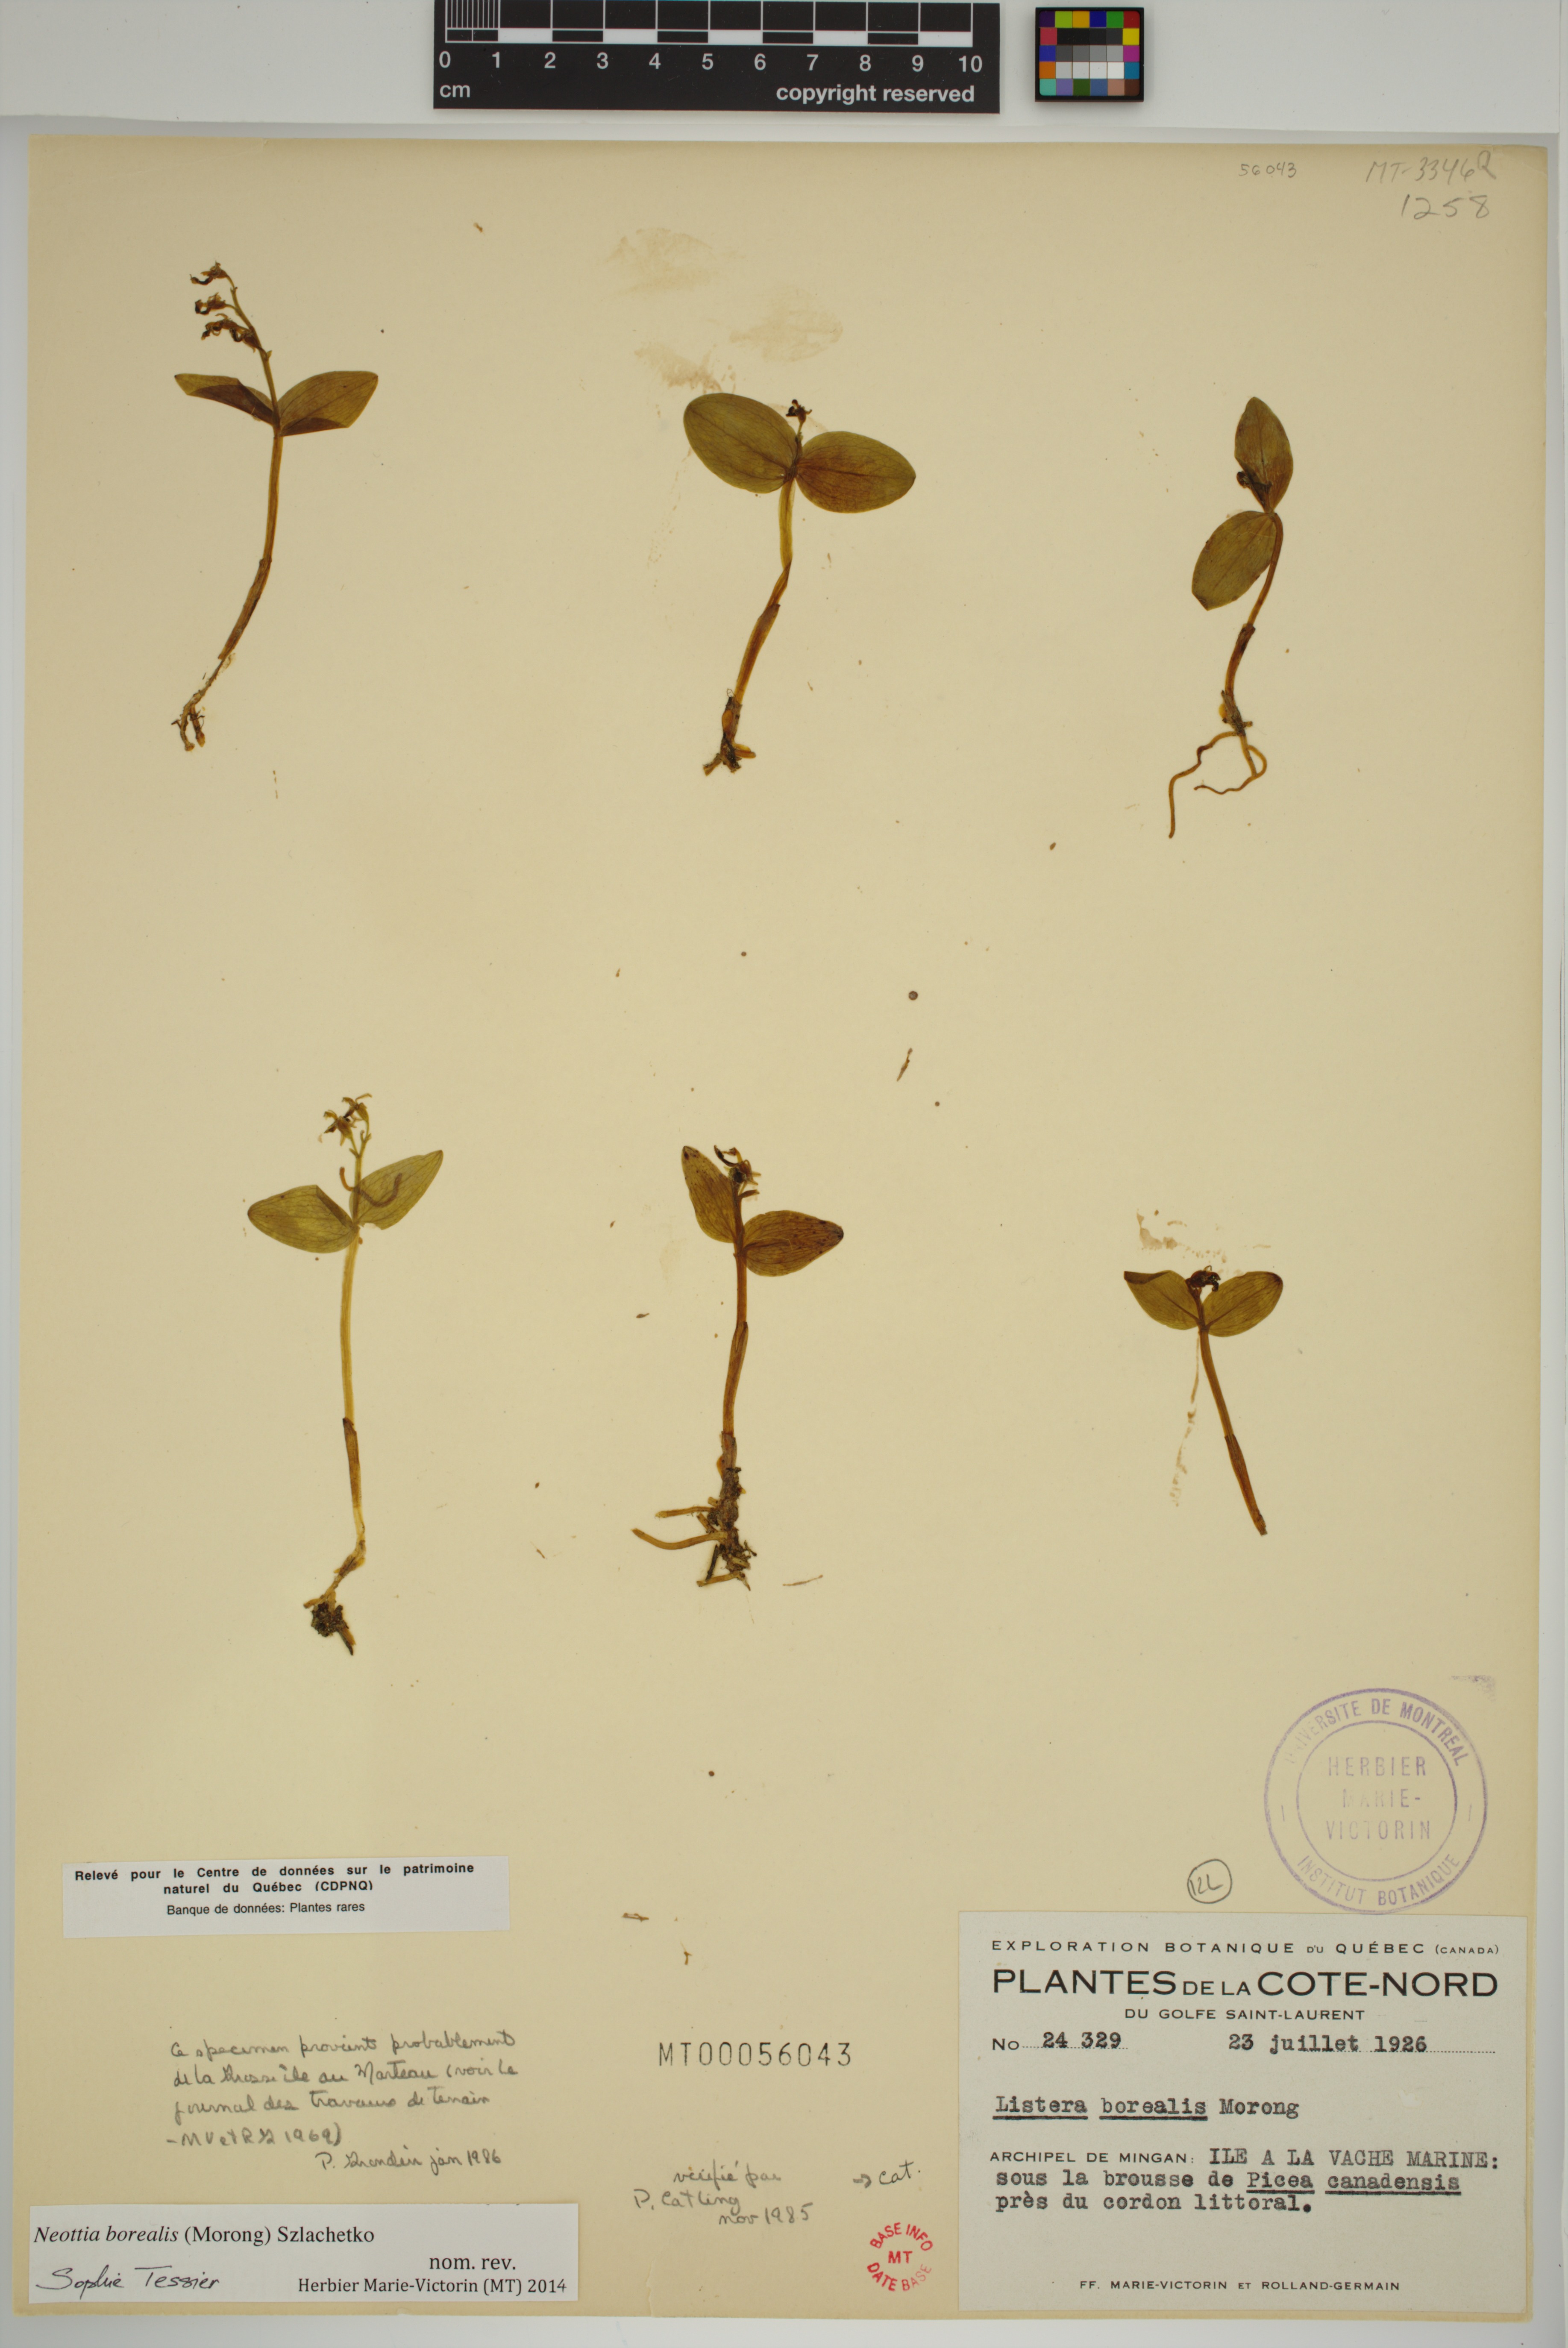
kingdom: Plantae
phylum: Tracheophyta
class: Liliopsida
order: Asparagales
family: Orchidaceae
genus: Neottia
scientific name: Neottia borealis
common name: Northern twayblade
